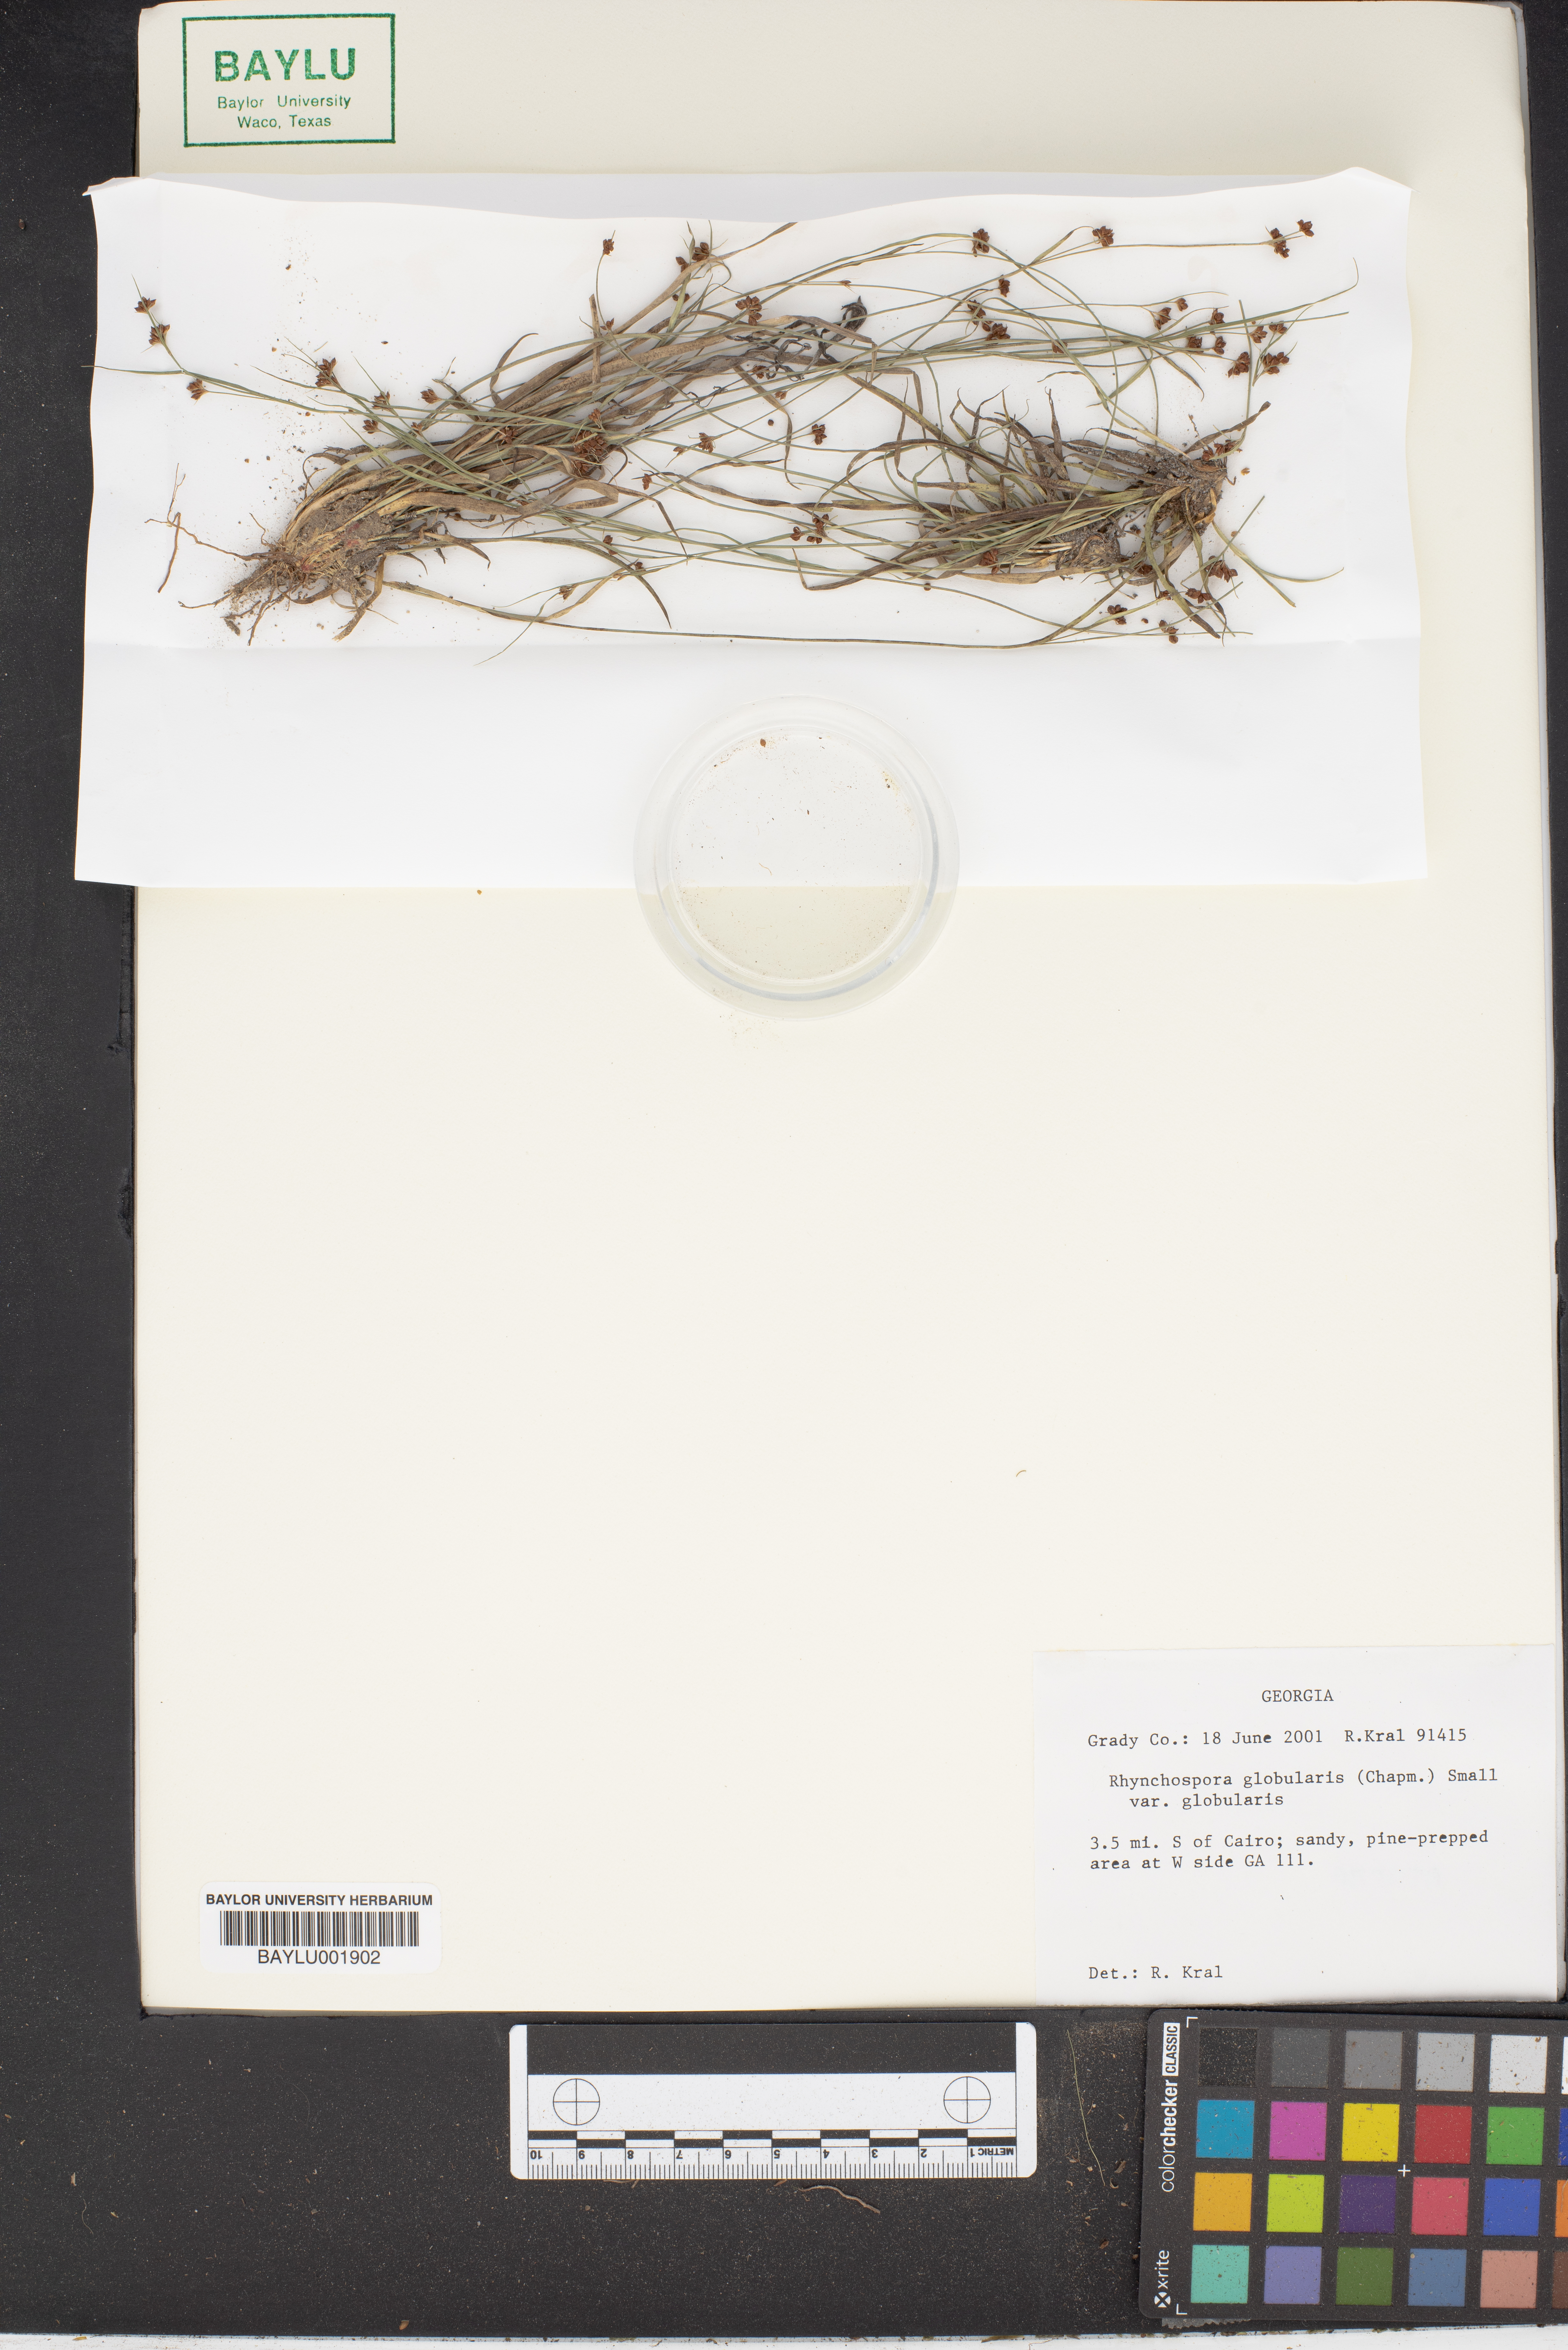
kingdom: Plantae
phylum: Tracheophyta
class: Liliopsida
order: Poales
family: Cyperaceae
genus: Rhynchospora
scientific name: Rhynchospora globularis
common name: Globe beaksedge
